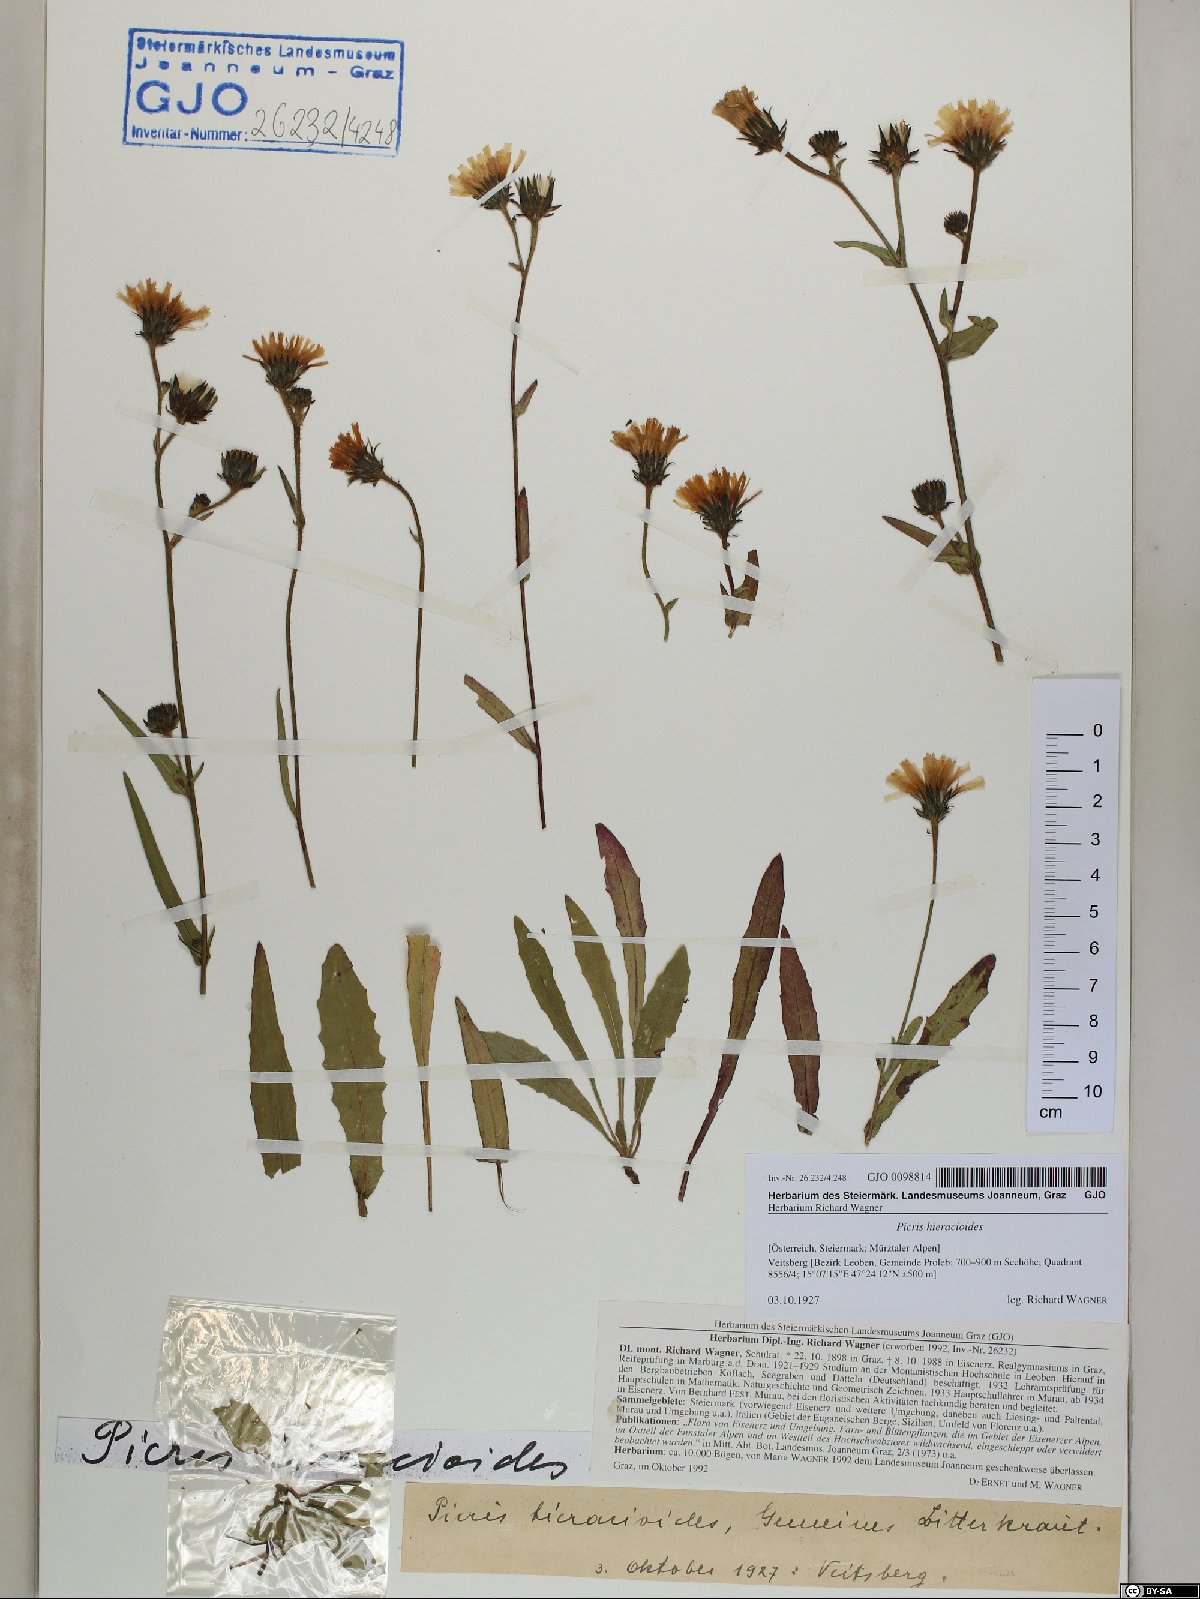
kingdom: Plantae
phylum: Tracheophyta
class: Magnoliopsida
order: Asterales
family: Asteraceae
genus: Picris
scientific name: Picris hieracioides
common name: Hawkweed oxtongue
